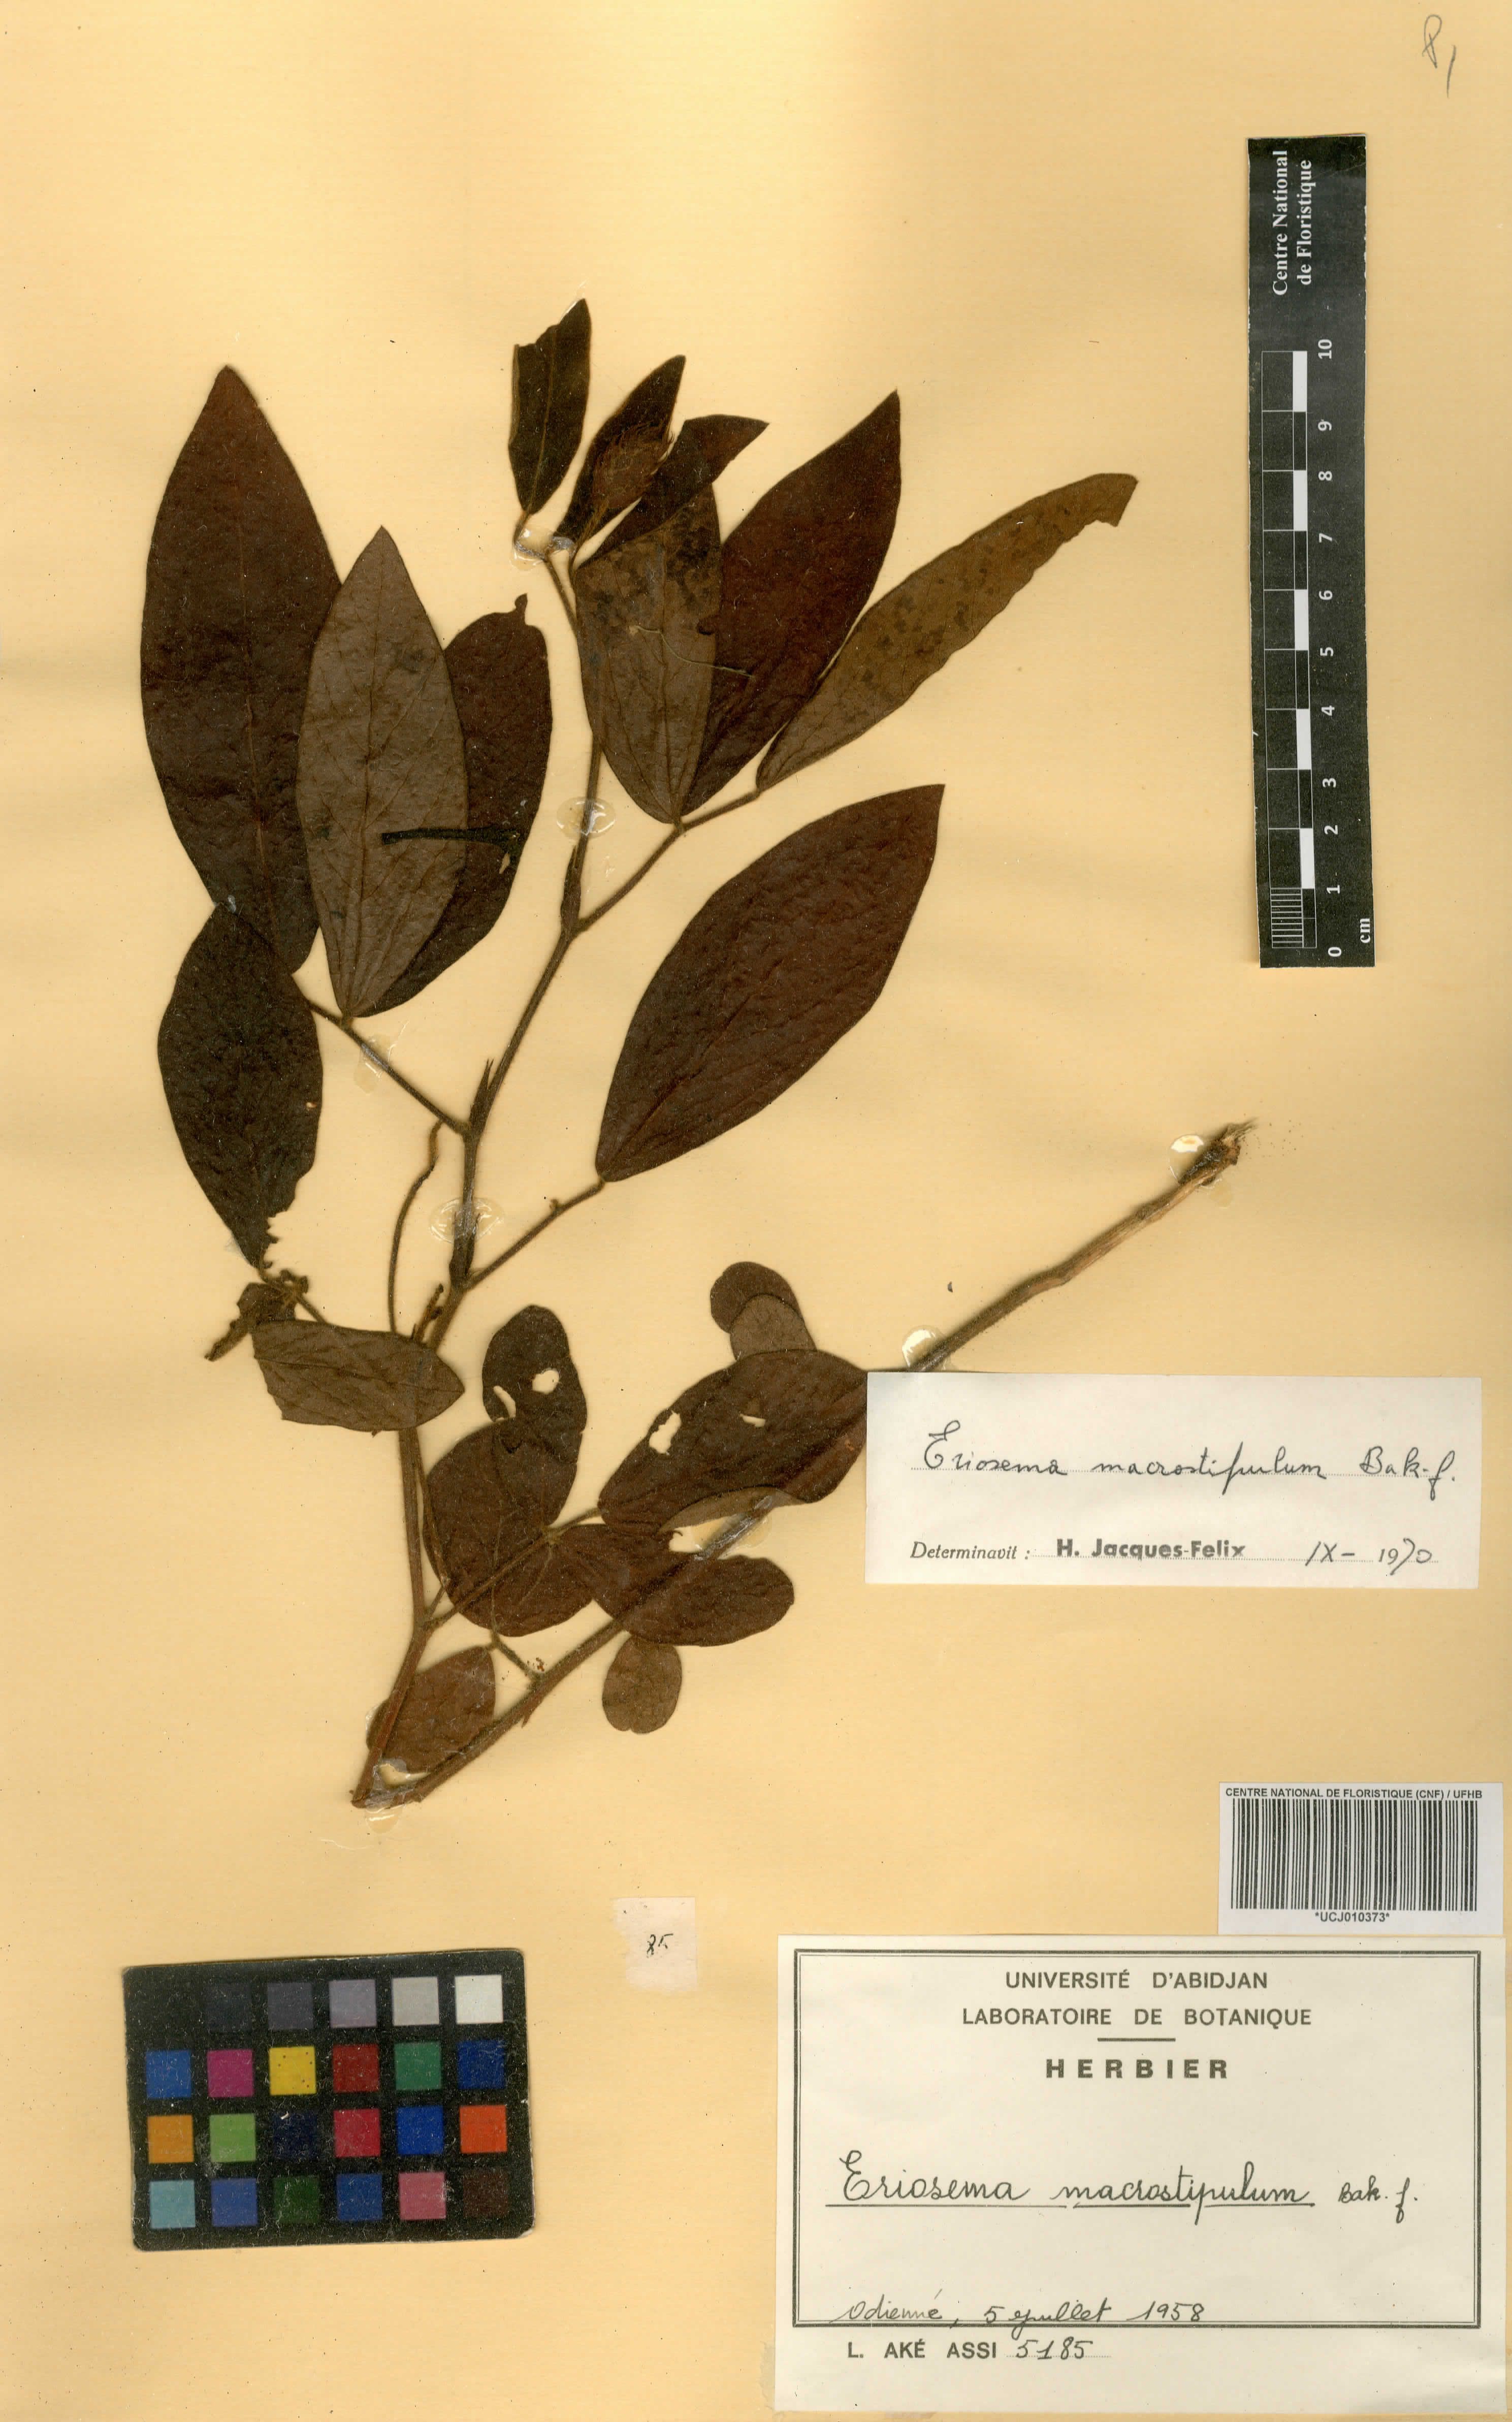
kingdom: Plantae
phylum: Tracheophyta
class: Magnoliopsida
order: Fabales
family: Fabaceae
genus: Eriosema
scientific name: Eriosema macrostipulum
